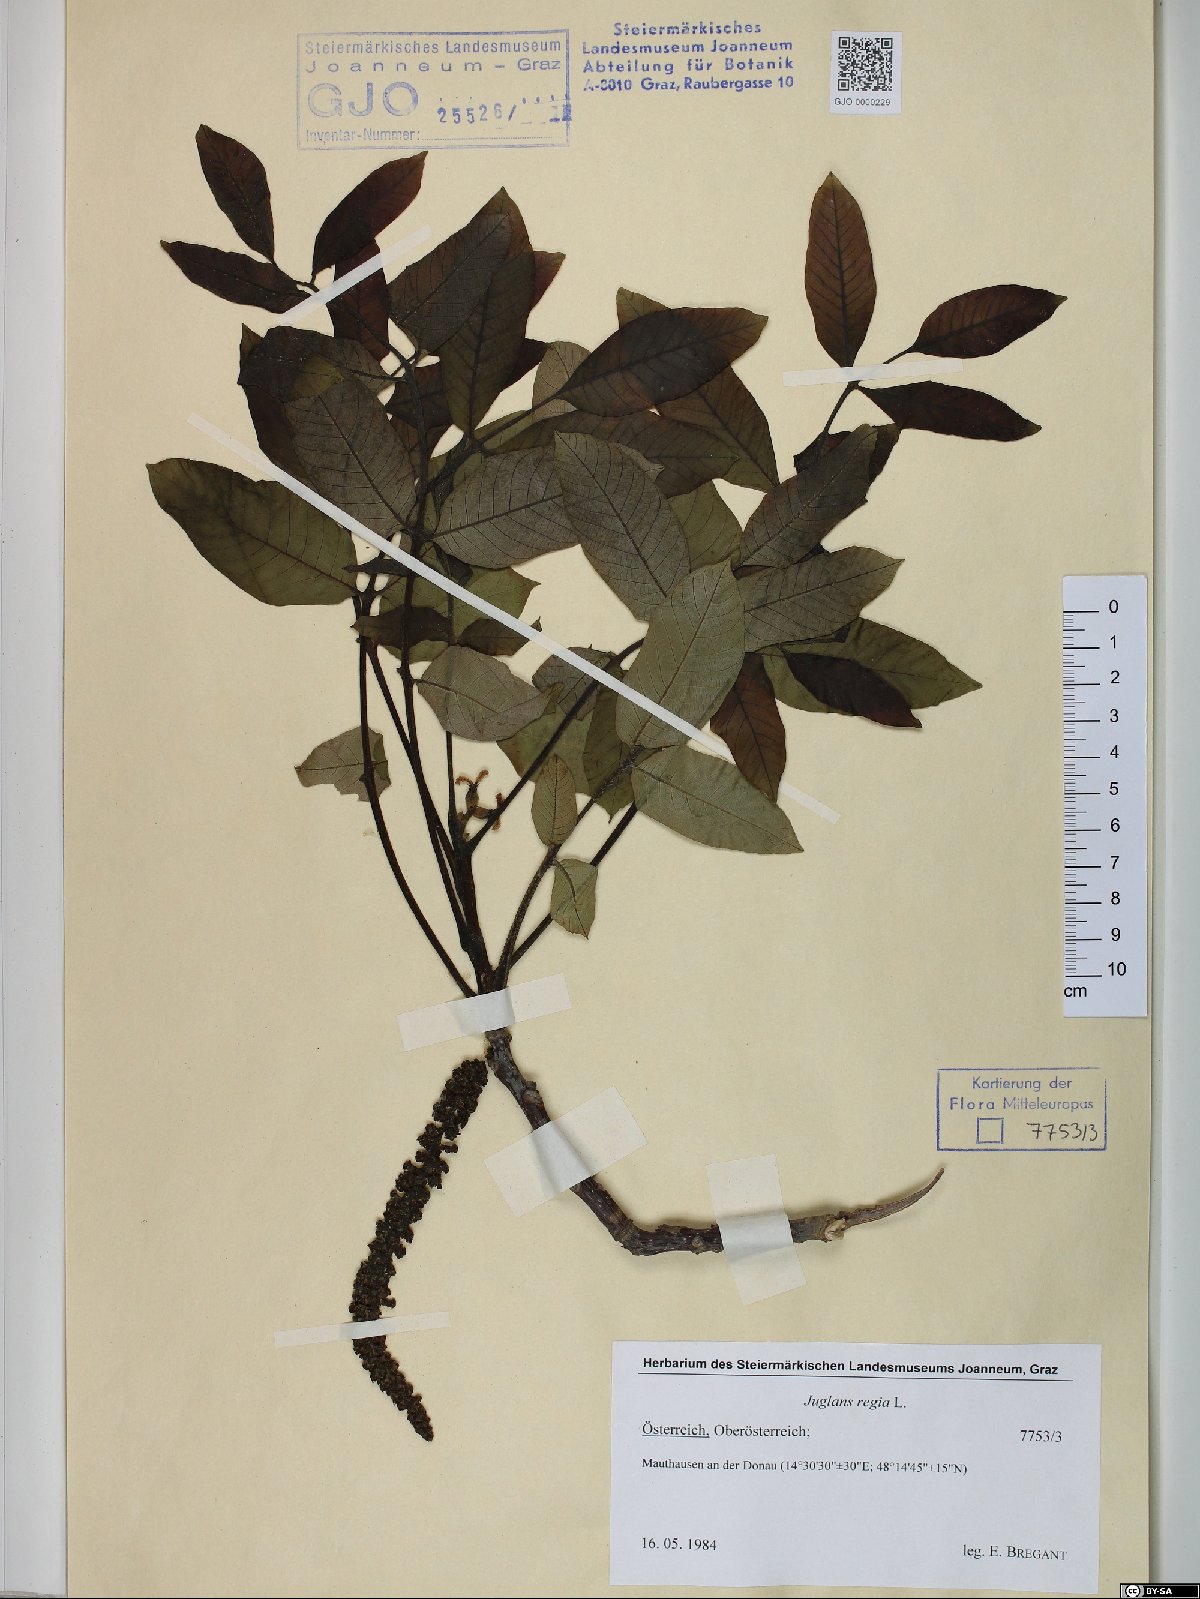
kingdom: Plantae
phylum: Tracheophyta
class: Magnoliopsida
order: Fagales
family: Juglandaceae
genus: Juglans
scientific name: Juglans regia
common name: Walnut
